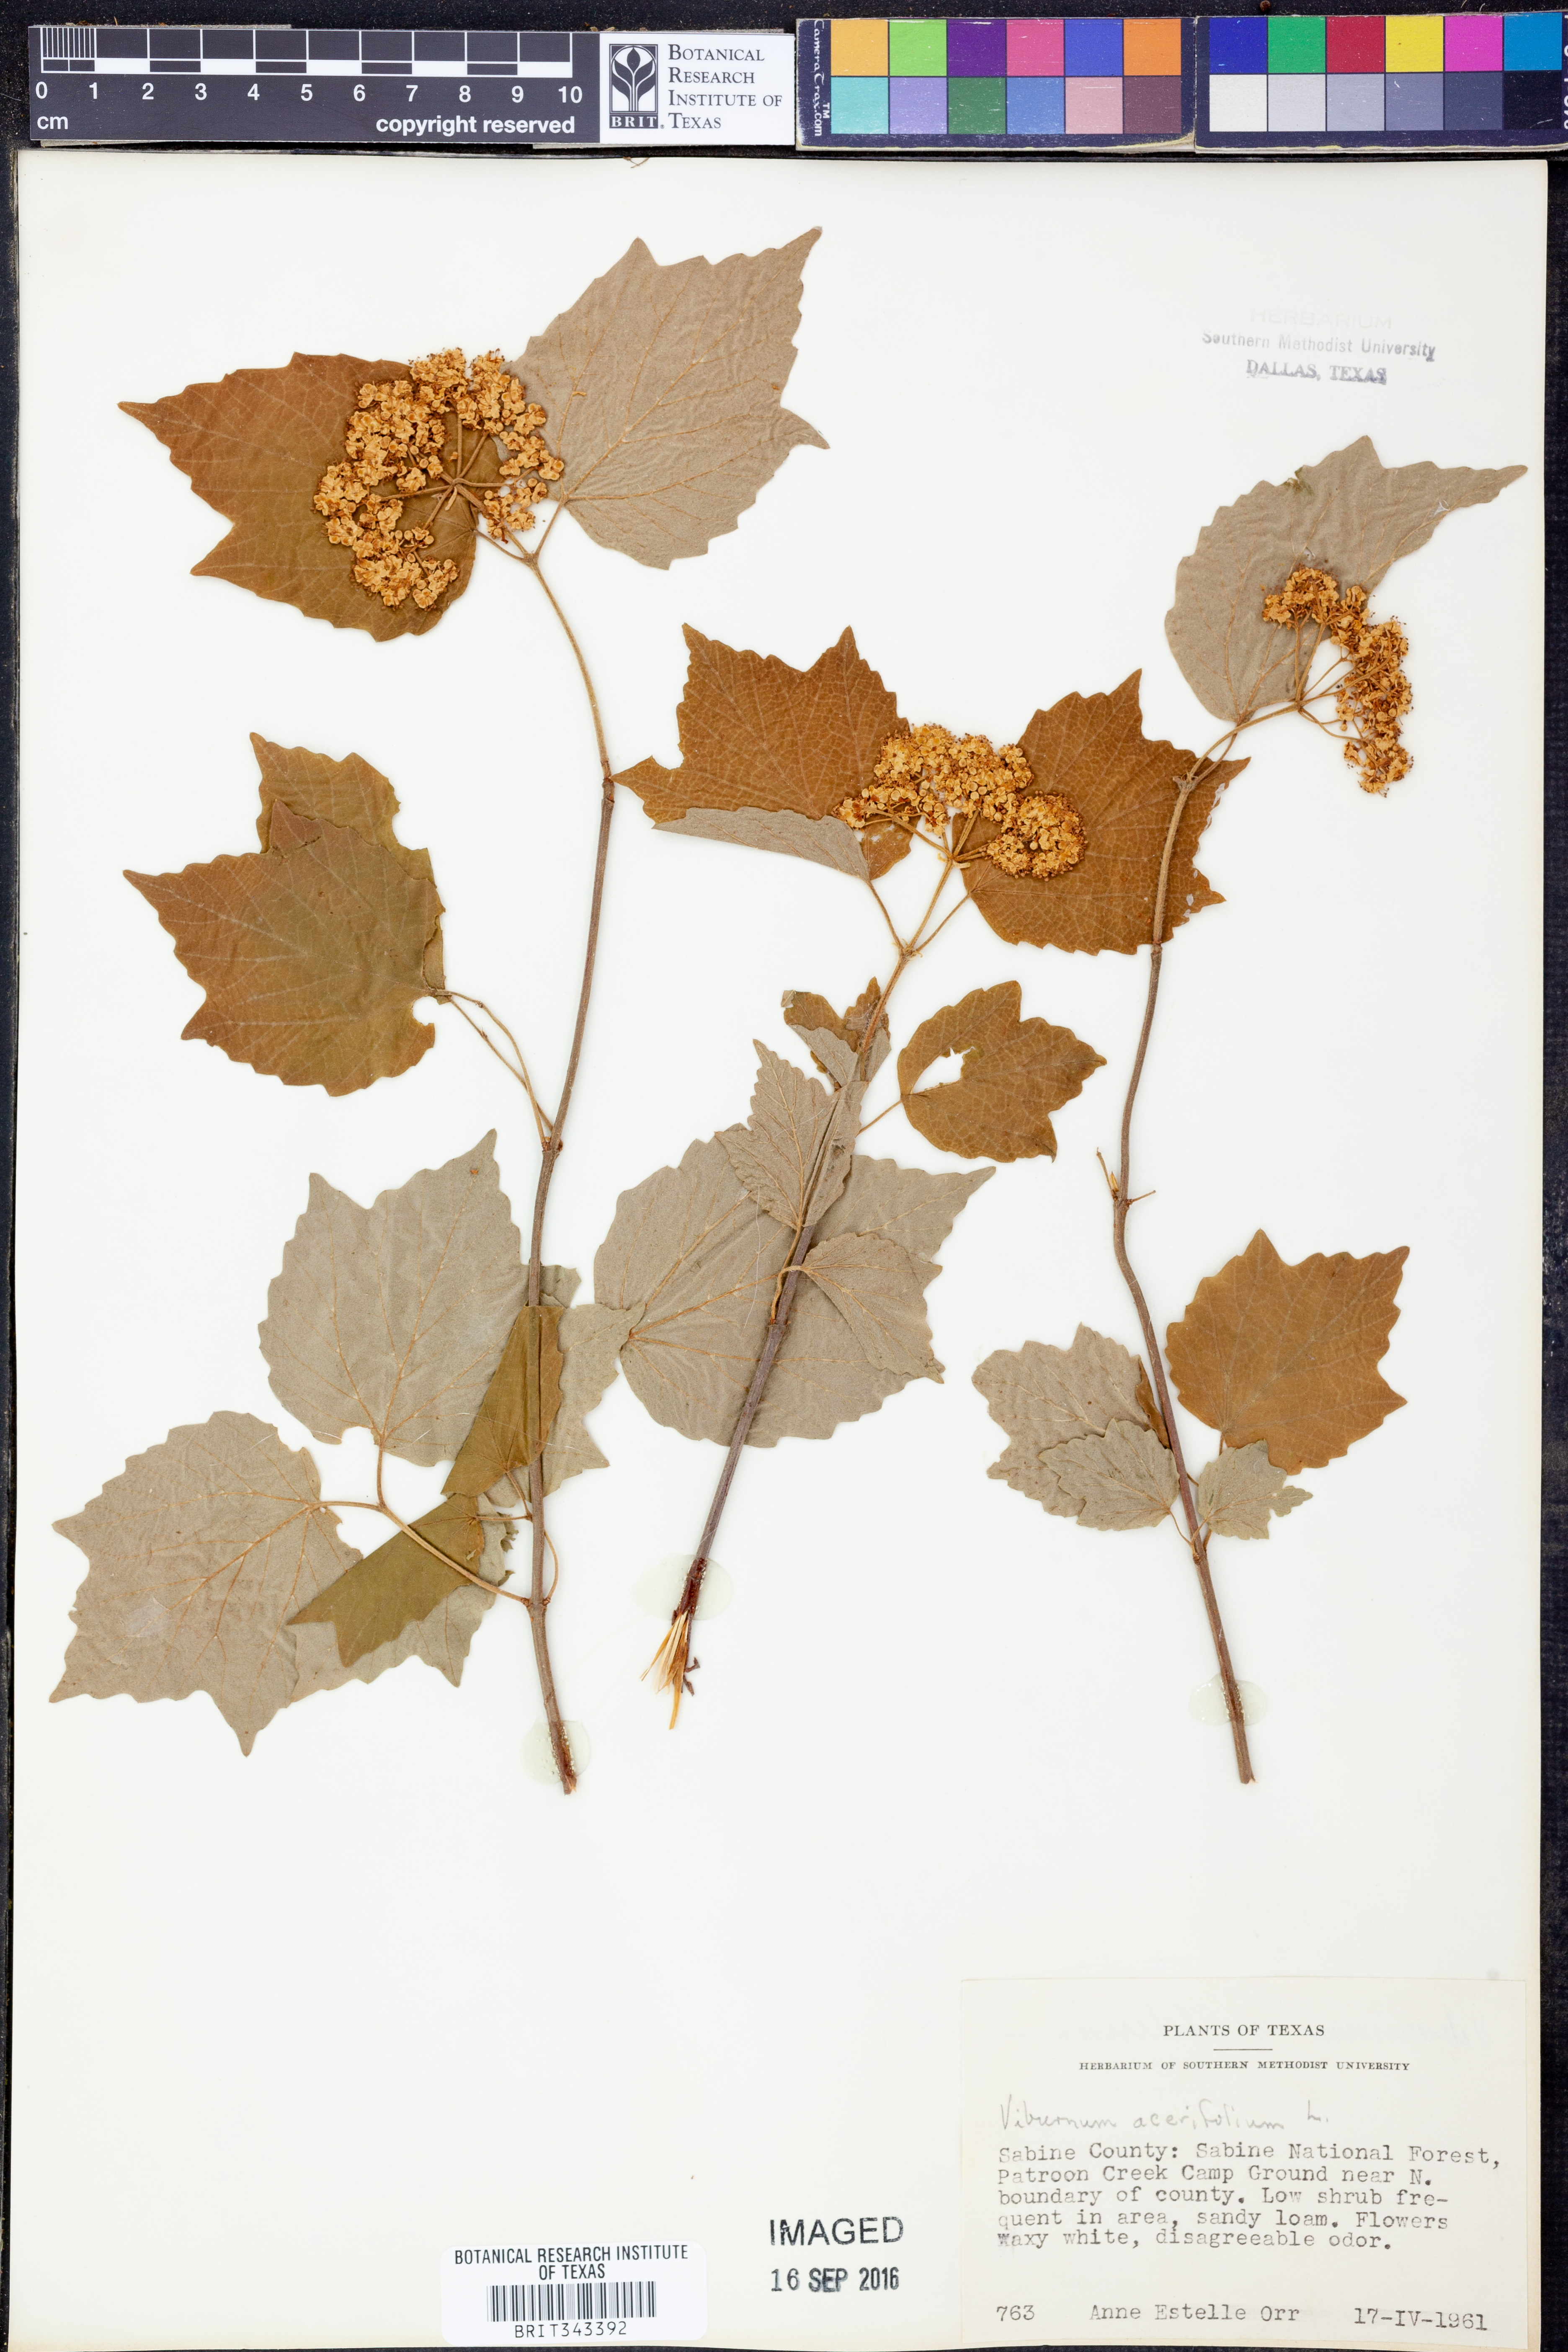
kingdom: Plantae
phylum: Tracheophyta
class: Magnoliopsida
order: Dipsacales
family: Viburnaceae
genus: Viburnum
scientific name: Viburnum acerifolium
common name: Dockmackie
